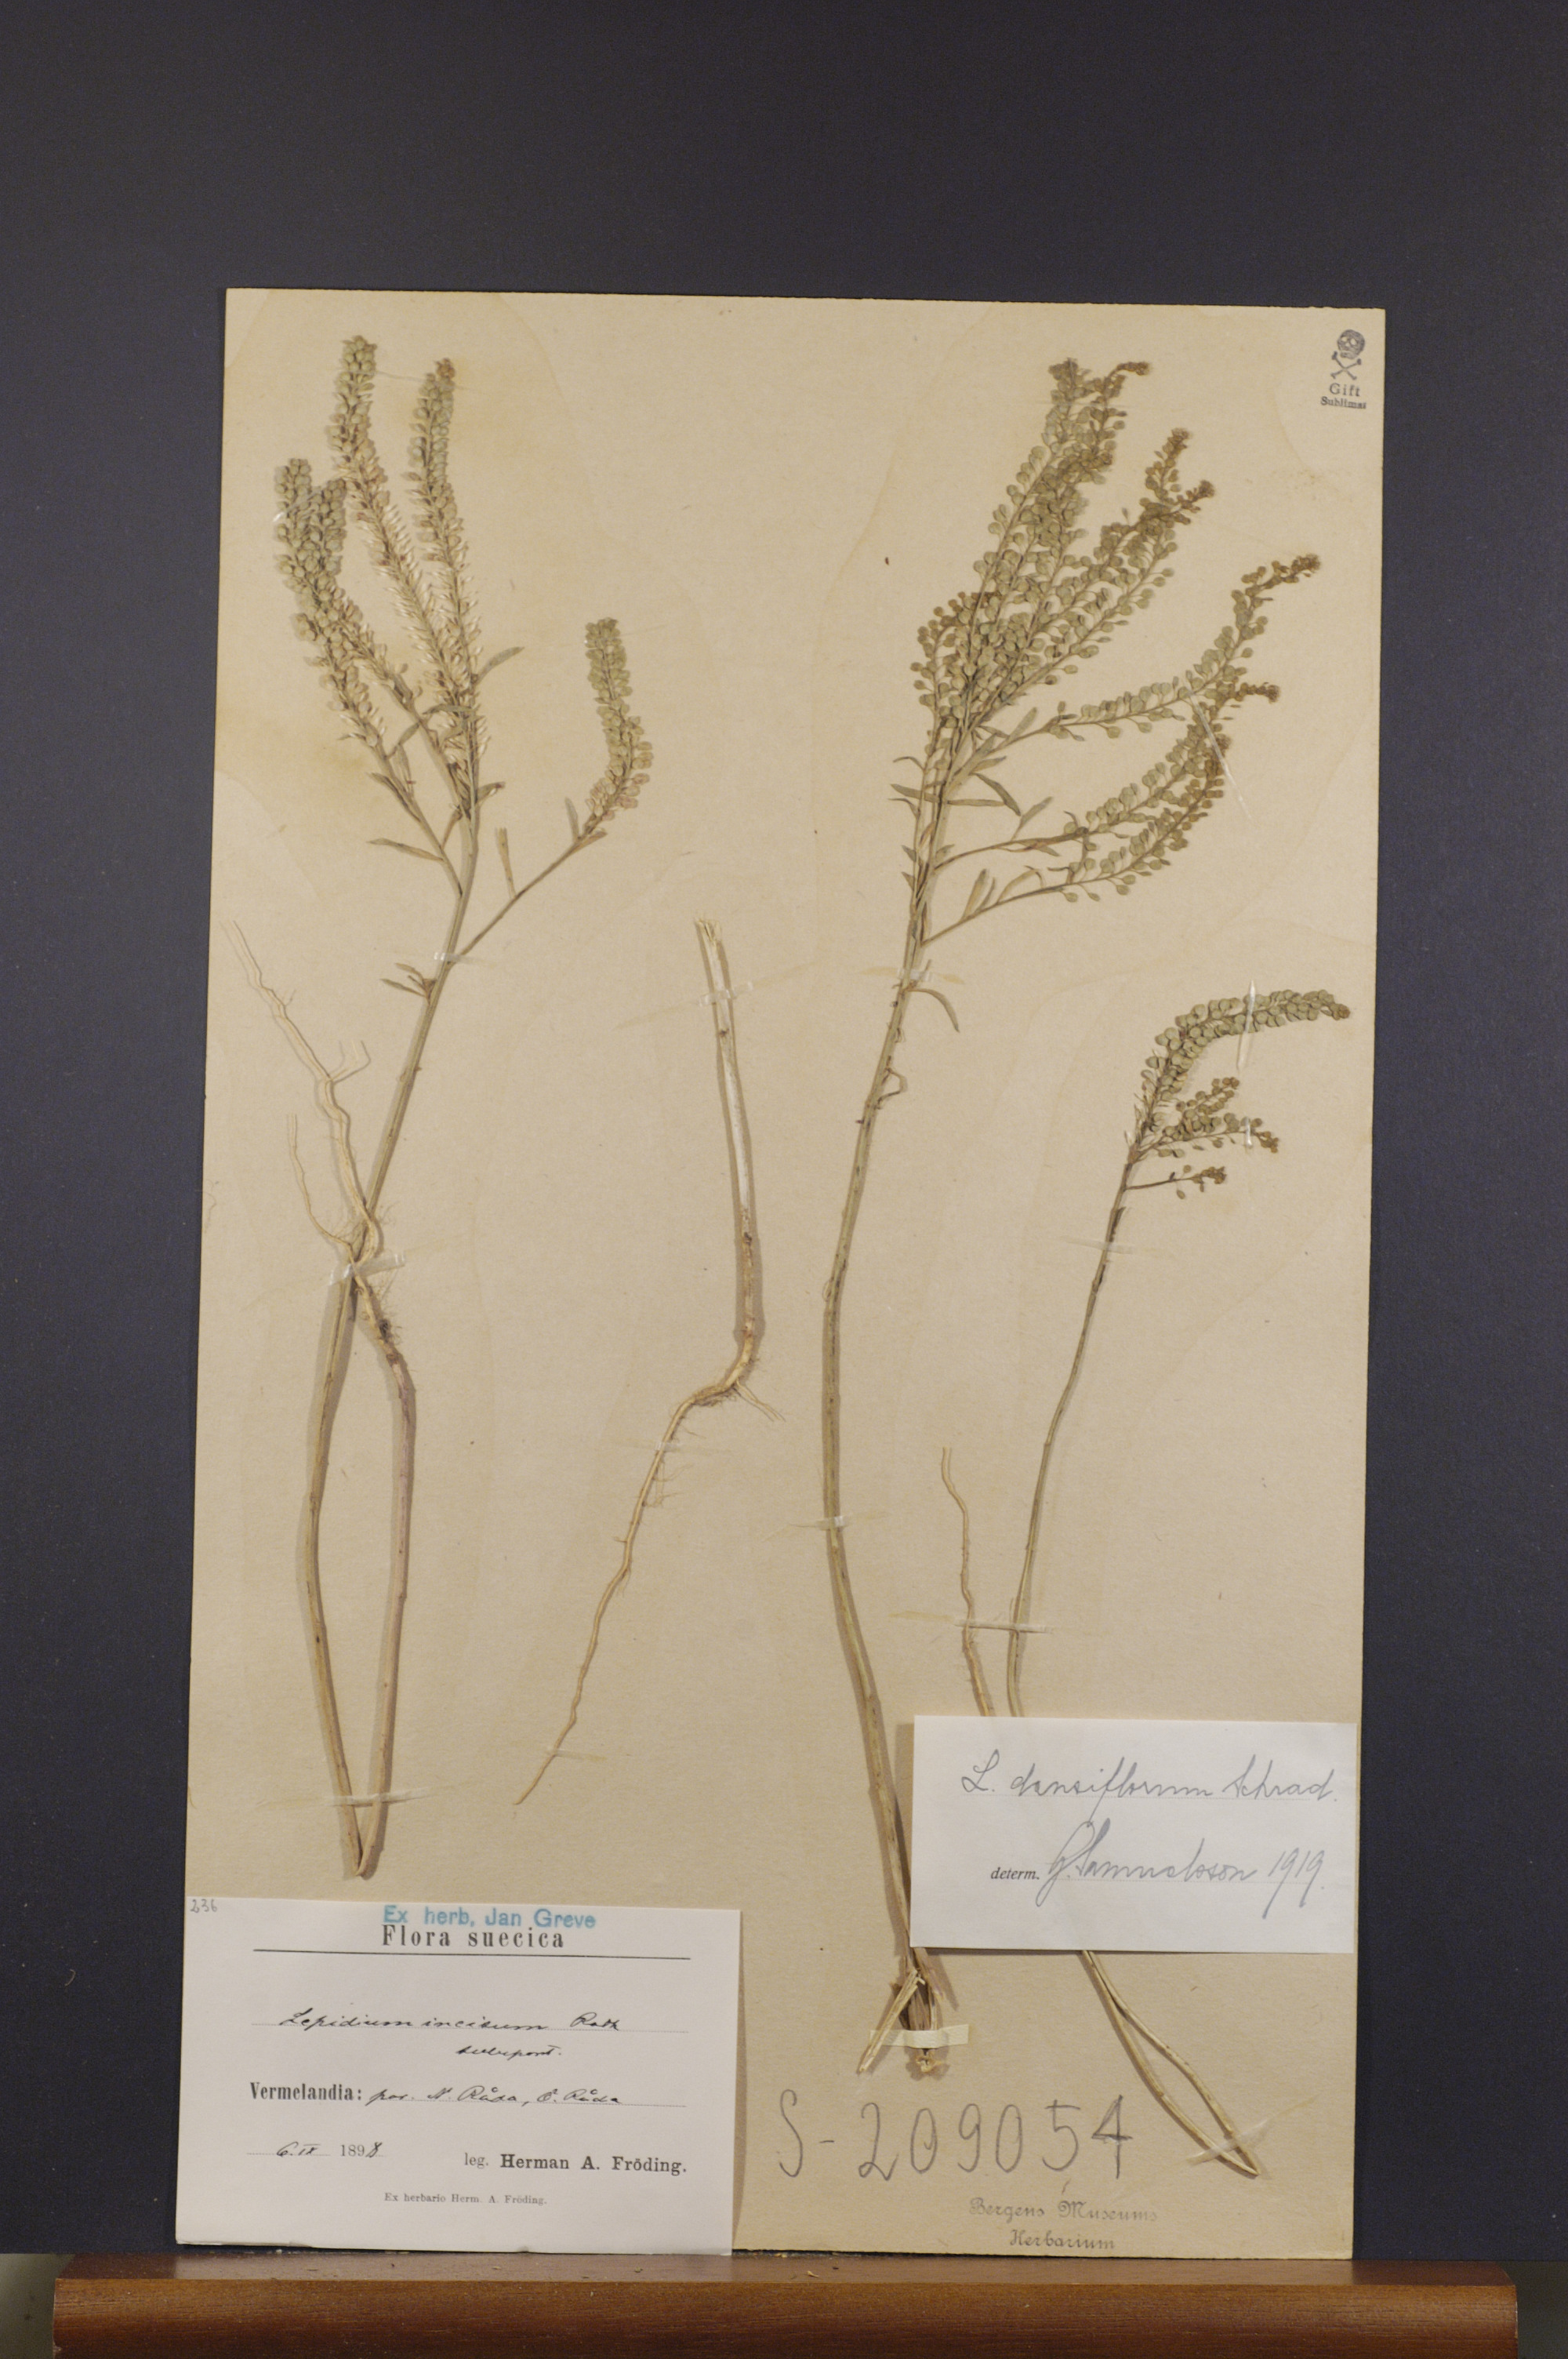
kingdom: Plantae
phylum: Tracheophyta
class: Magnoliopsida
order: Brassicales
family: Brassicaceae
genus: Lepidium
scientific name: Lepidium densiflorum
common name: Miner's pepperwort
